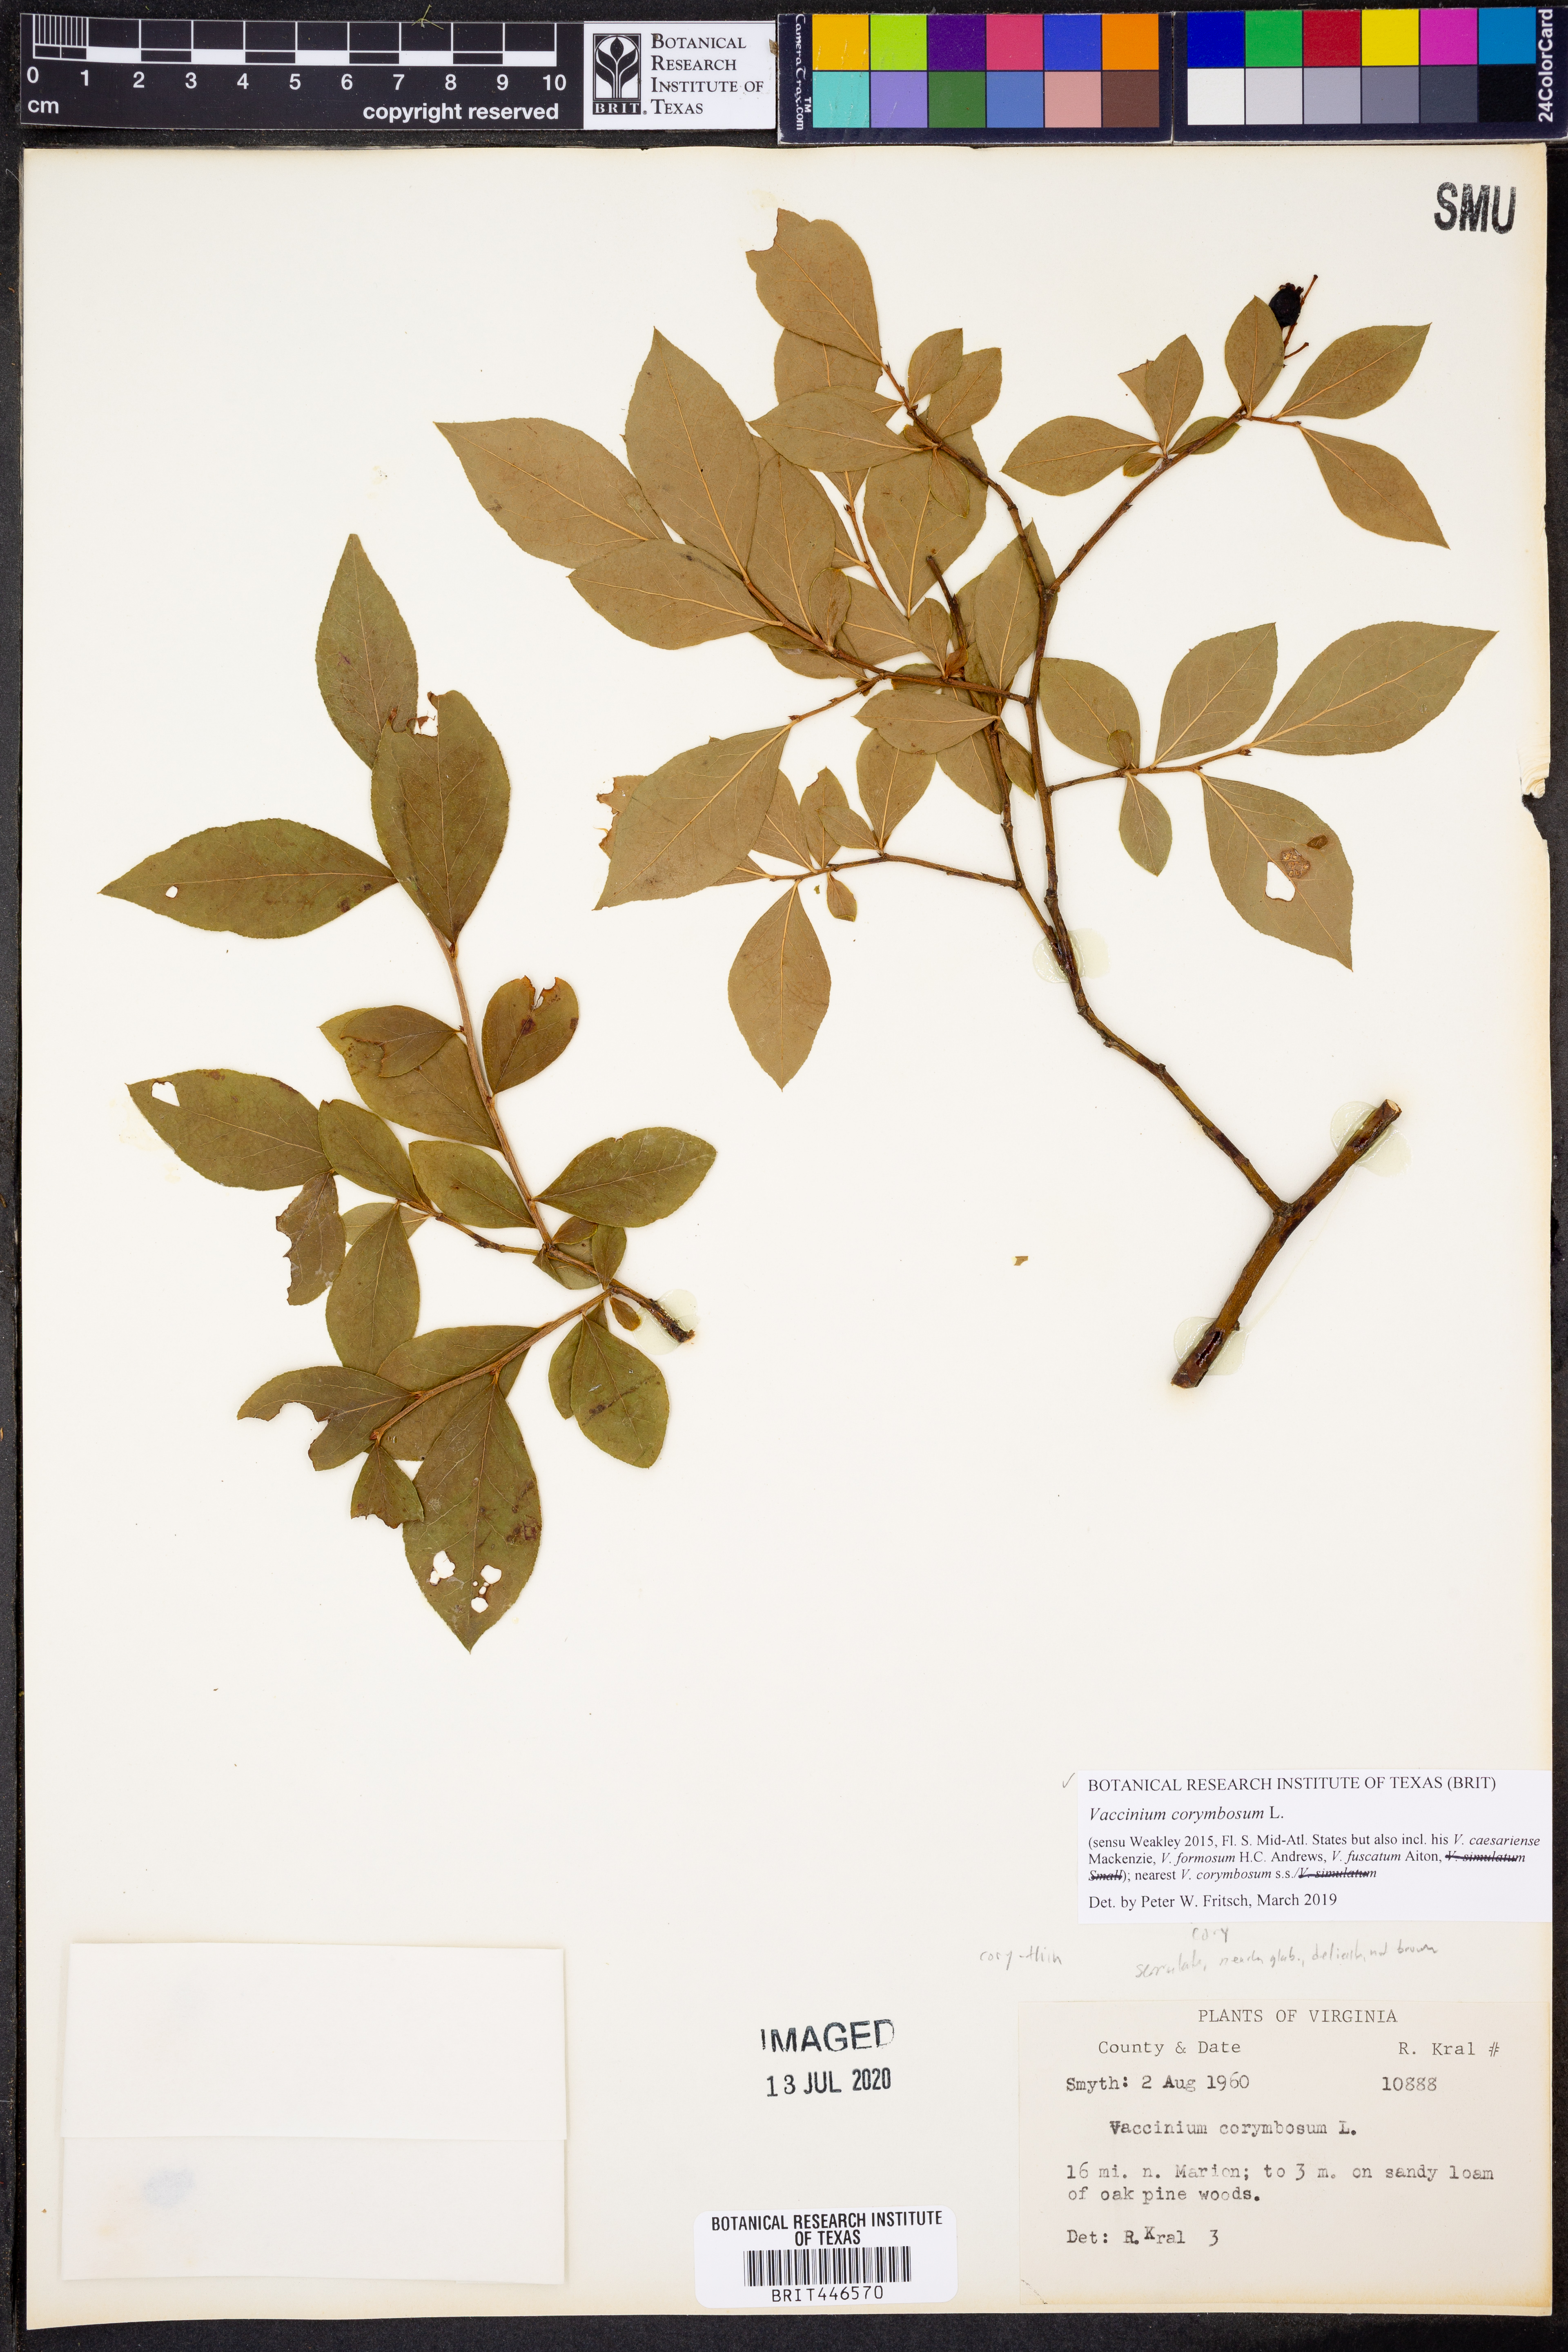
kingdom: Plantae
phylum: Tracheophyta
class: Magnoliopsida
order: Ericales
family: Ericaceae
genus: Vaccinium
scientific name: Vaccinium corymbosum
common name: Blueberry
